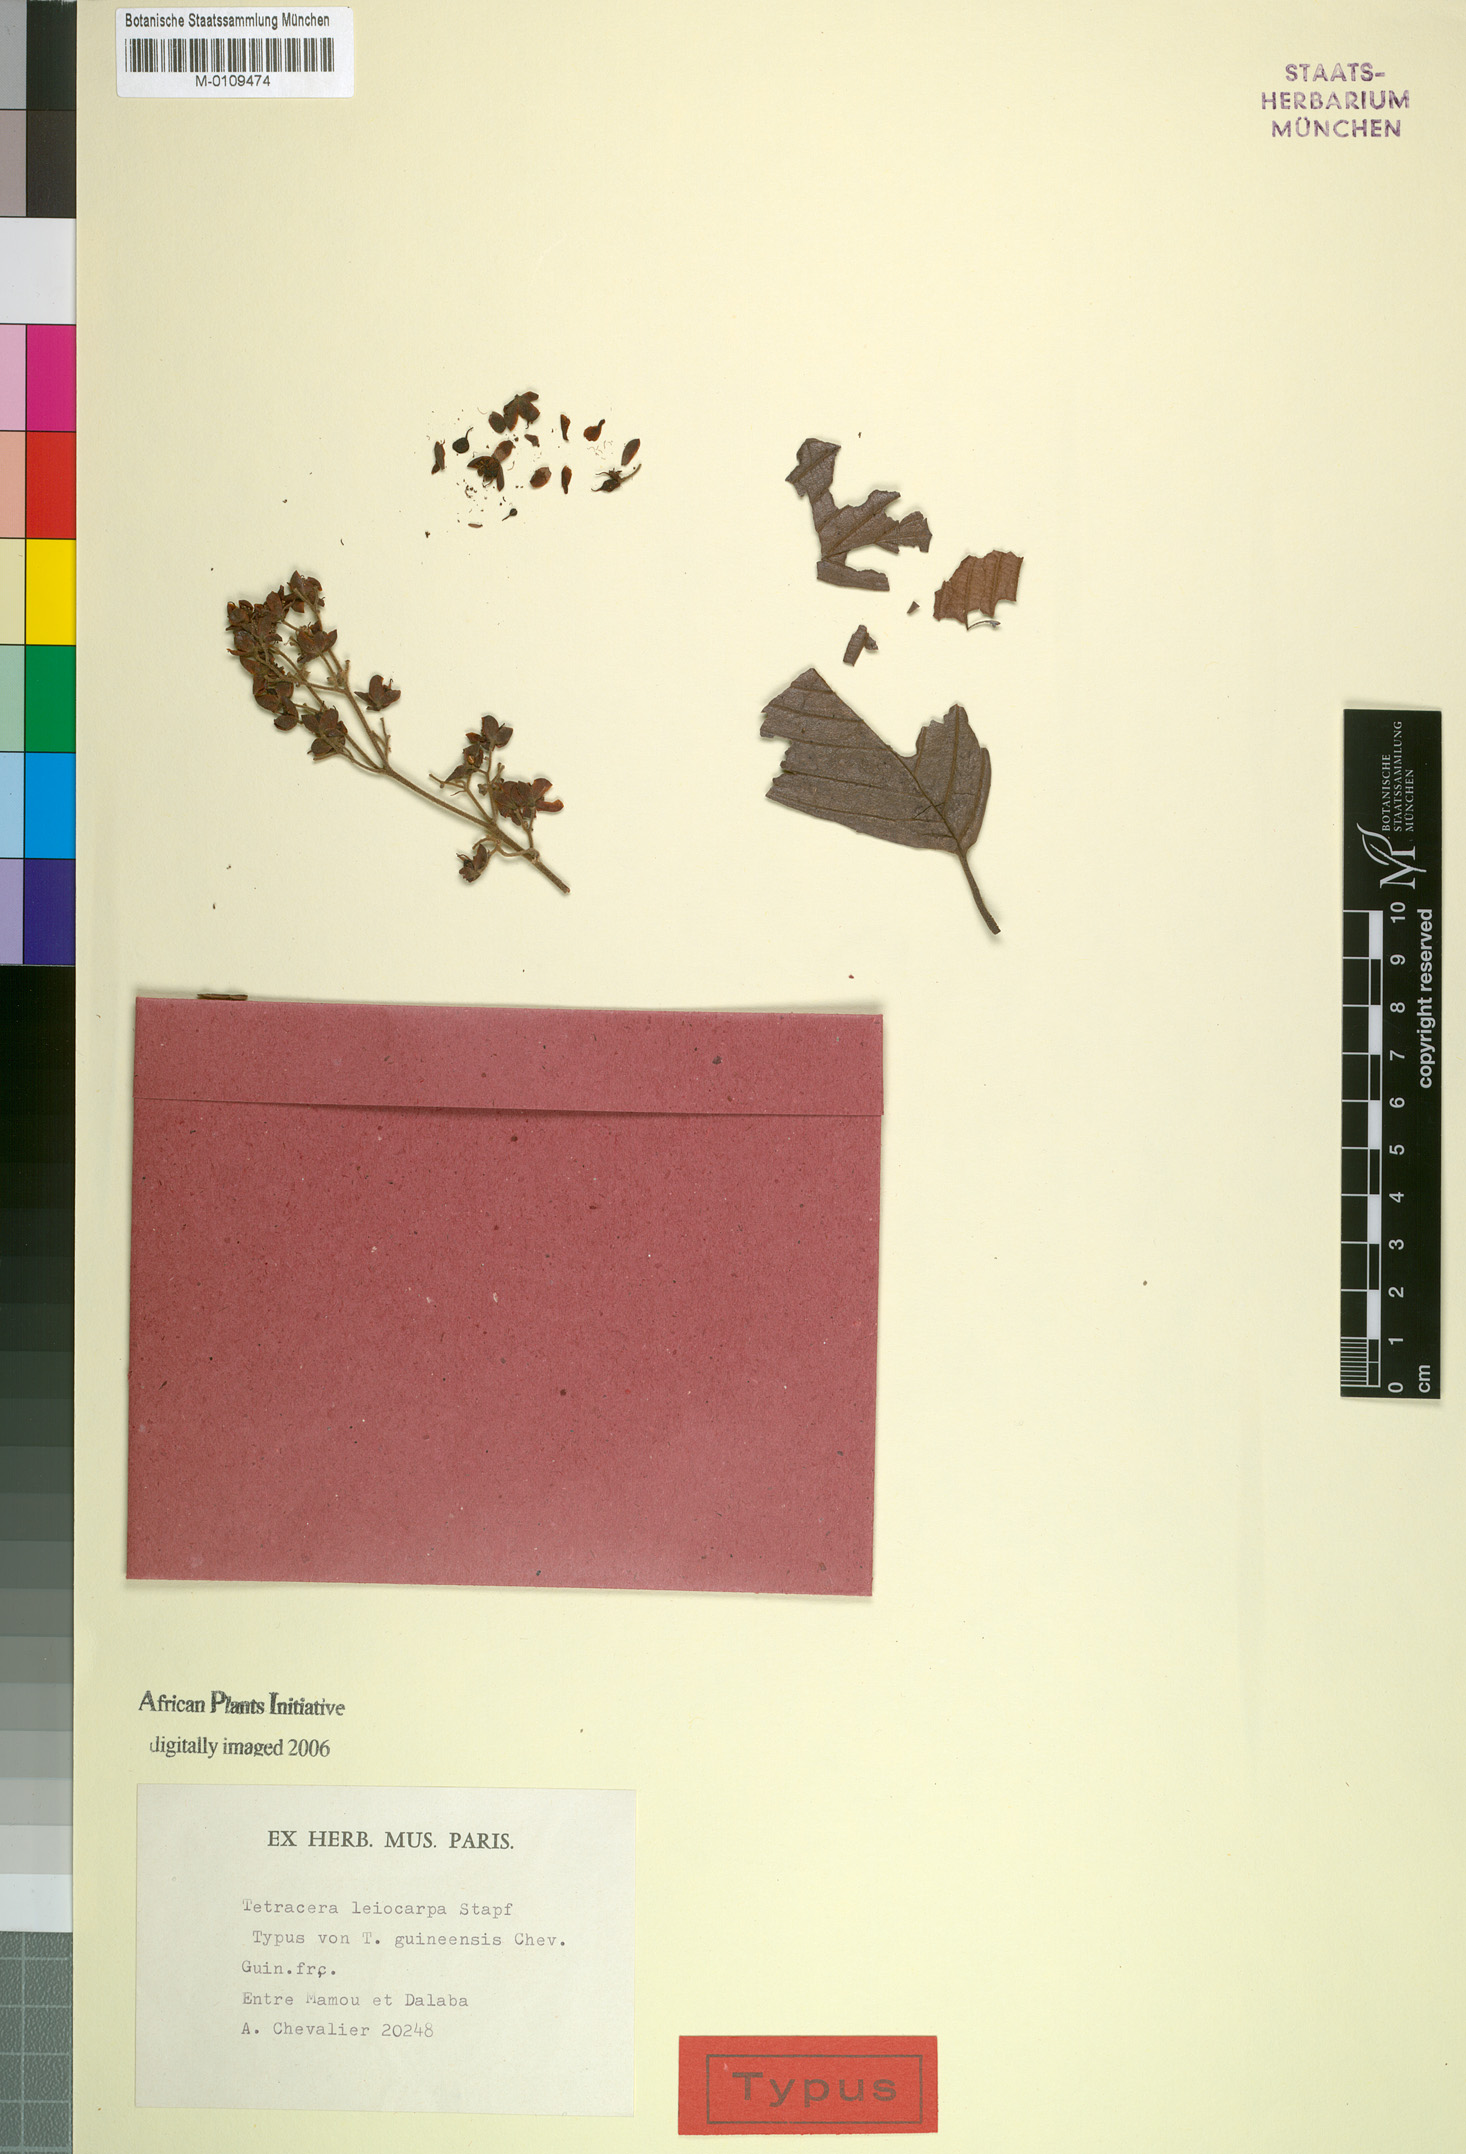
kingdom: Plantae
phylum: Tracheophyta
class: Magnoliopsida
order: Dilleniales
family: Dilleniaceae
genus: Tetracera
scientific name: Tetracera leiocarpa
